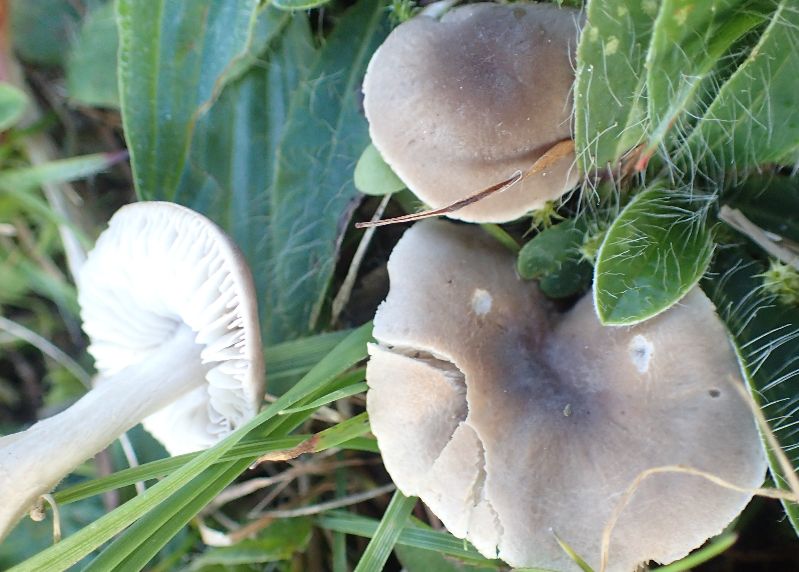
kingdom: Fungi
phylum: Basidiomycota
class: Agaricomycetes
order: Agaricales
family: Tricholomataceae
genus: Dermoloma
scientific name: Dermoloma cuneifolium
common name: eng-nonnehat
